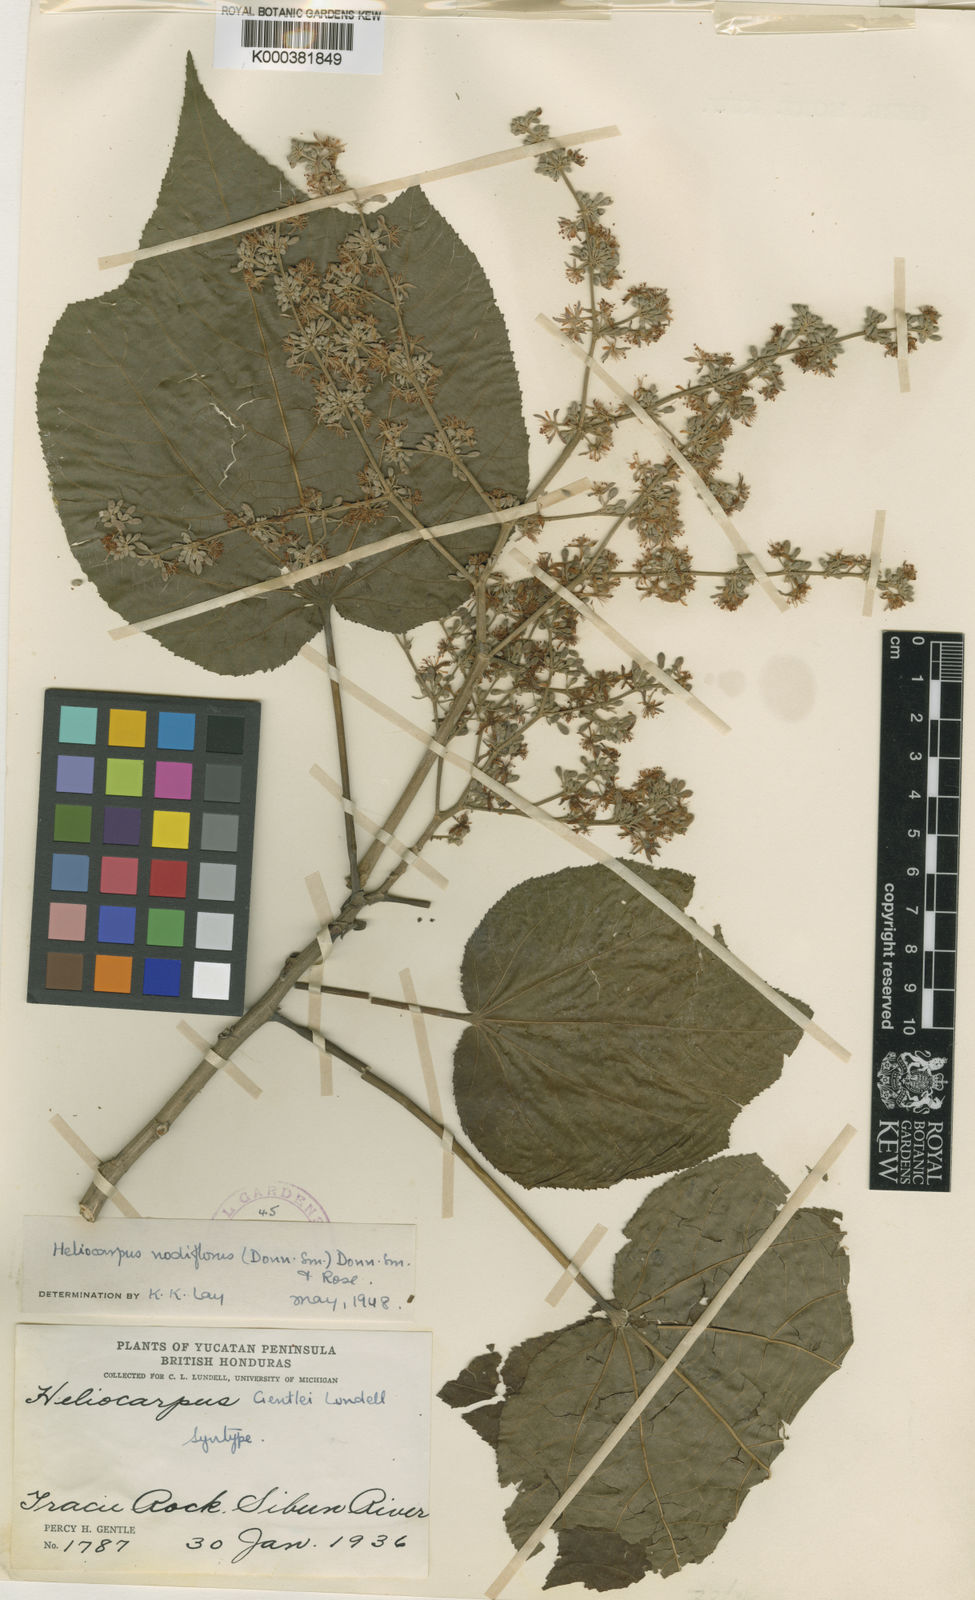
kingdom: Plantae
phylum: Tracheophyta
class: Magnoliopsida
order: Malvales
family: Malvaceae
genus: Heliocarpus
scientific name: Heliocarpus nodiflorus
